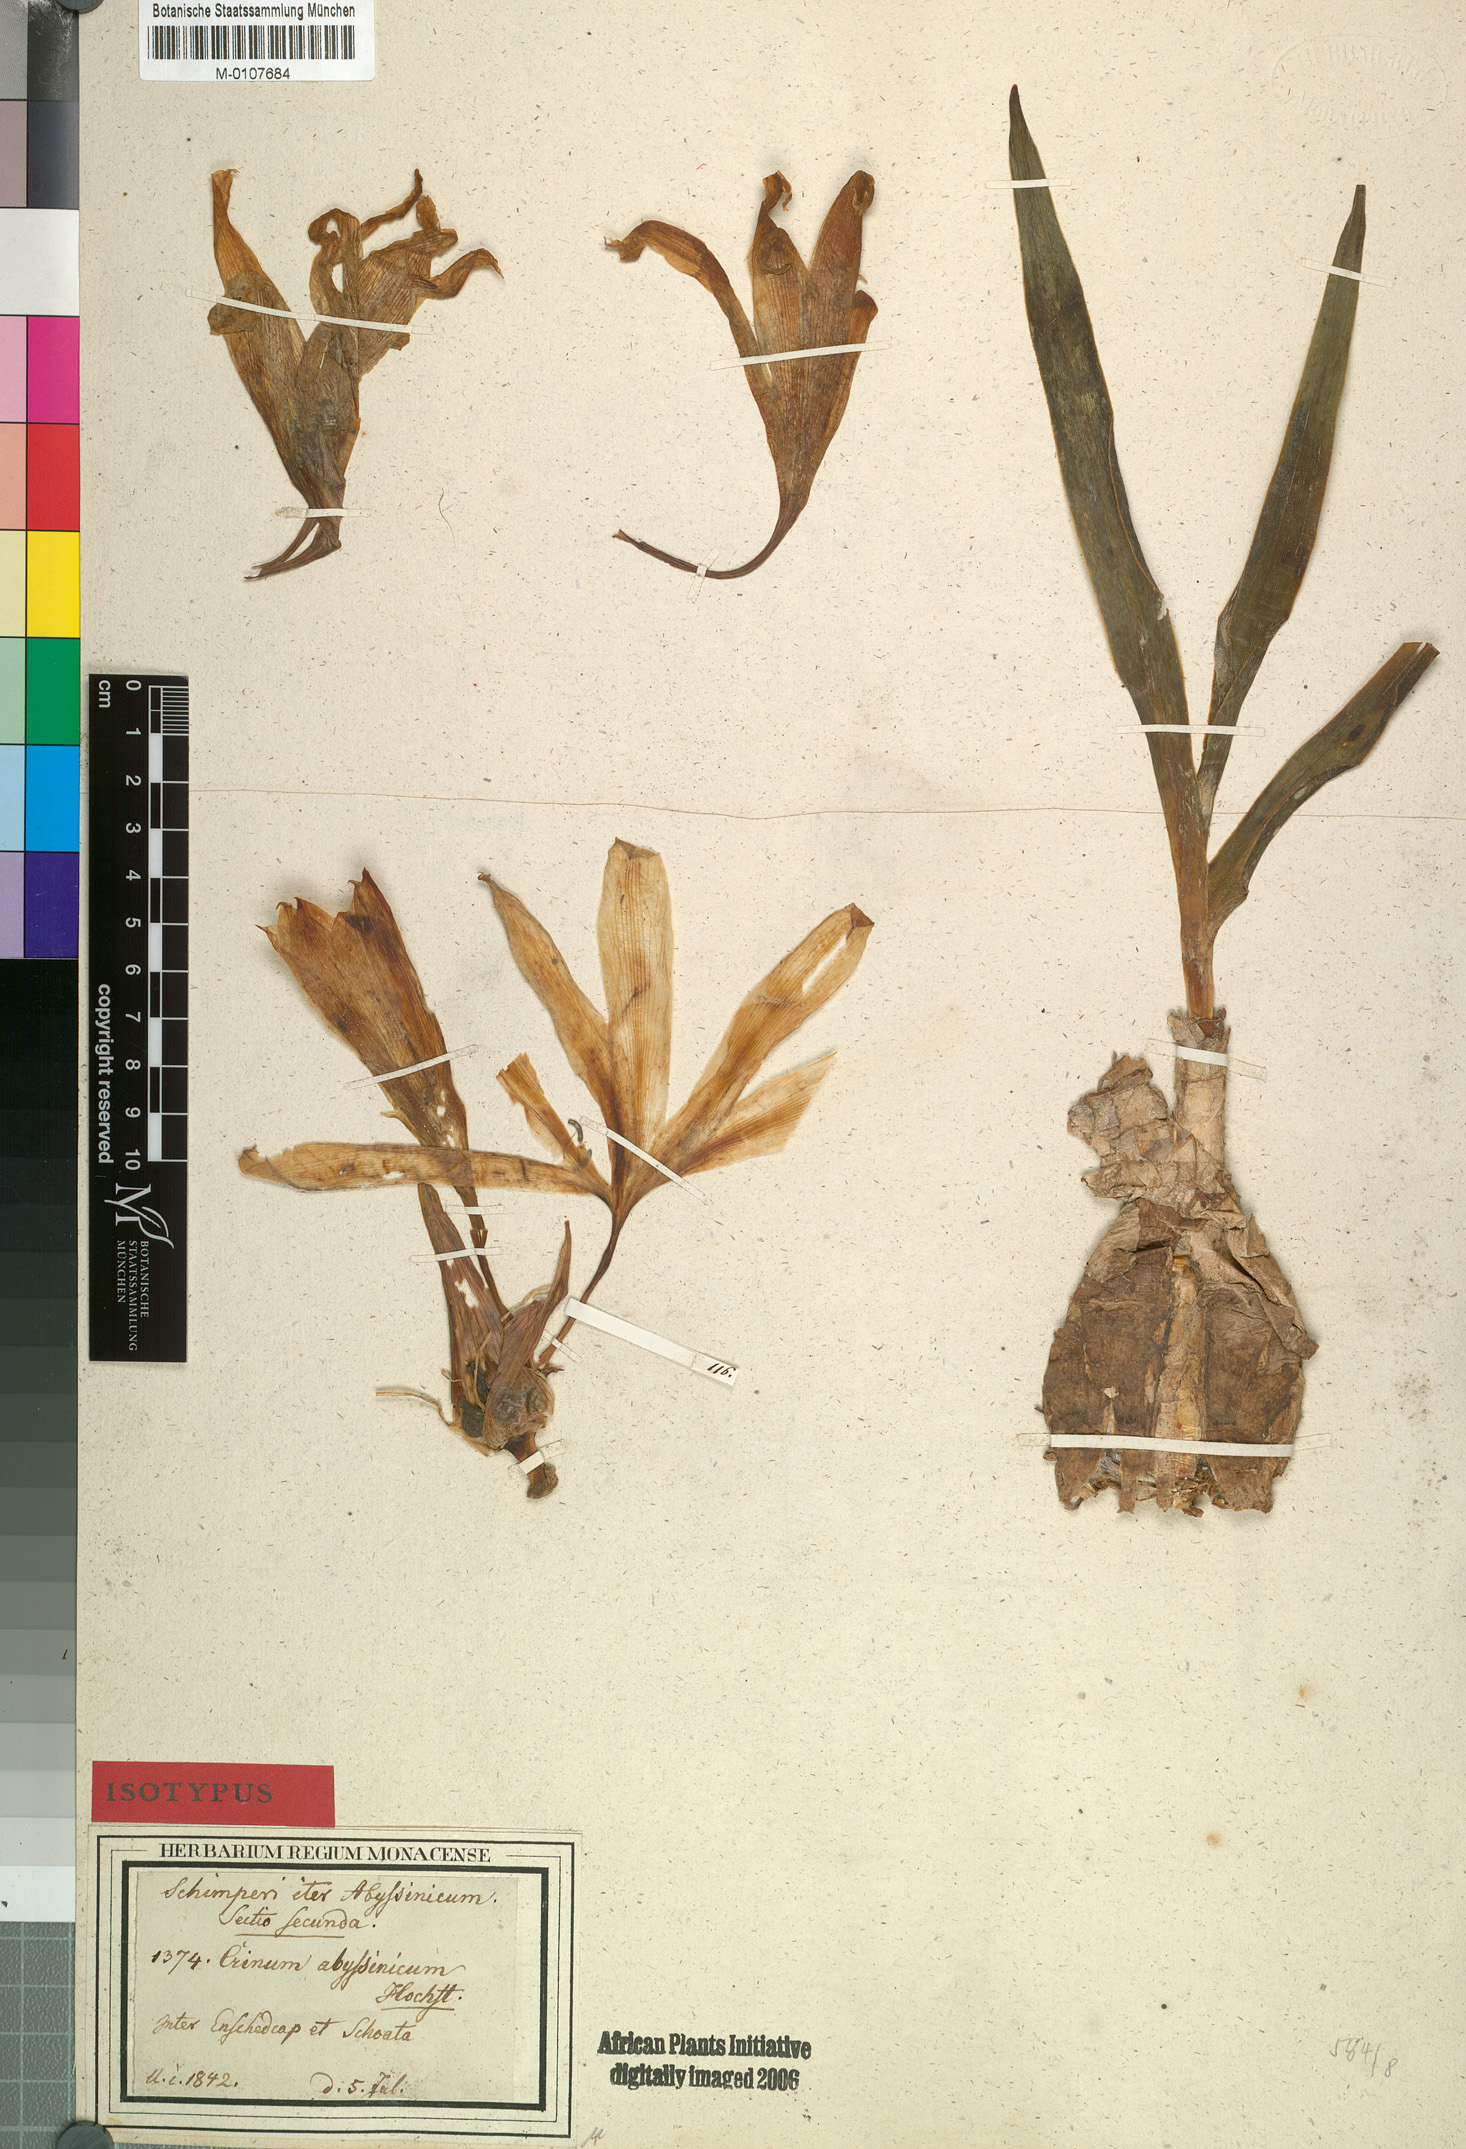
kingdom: Plantae
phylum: Tracheophyta
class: Liliopsida
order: Asparagales
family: Amaryllidaceae
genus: Crinum
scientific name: Crinum abyssinicum
